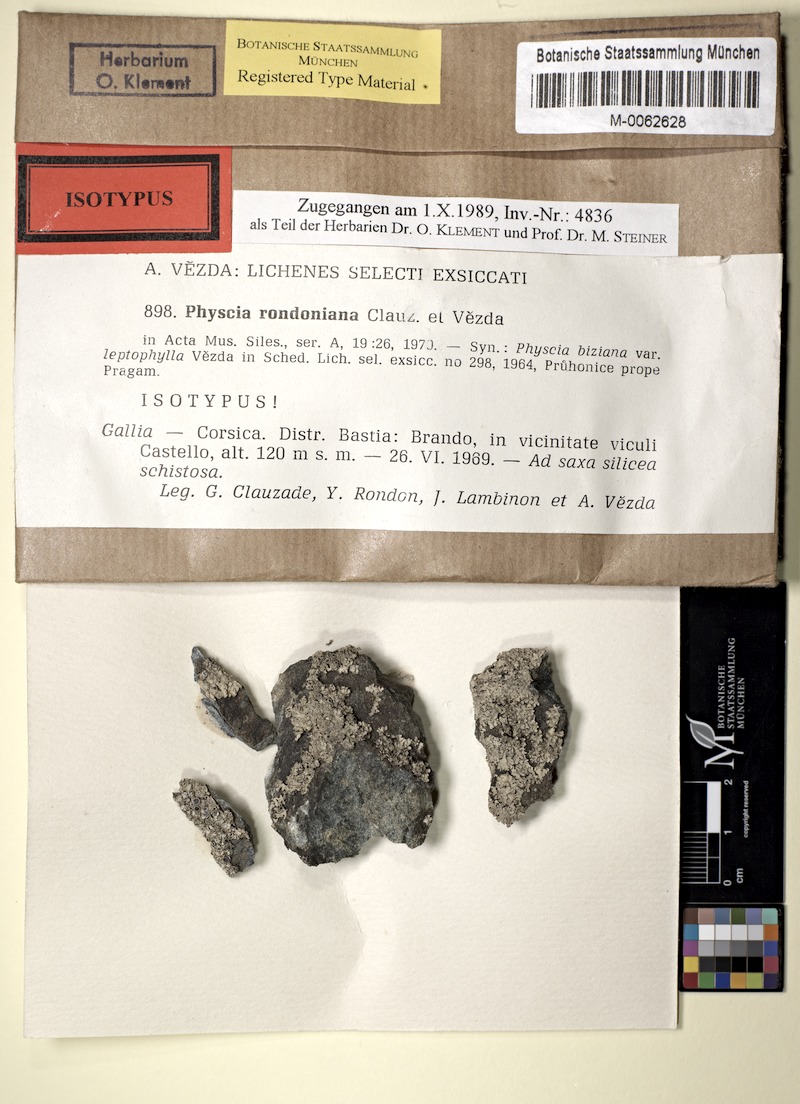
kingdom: Fungi
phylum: Ascomycota
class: Lecanoromycetes
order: Caliciales
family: Physciaceae
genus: Physcia
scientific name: Physcia biziana
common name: Frosted rosette lichen
